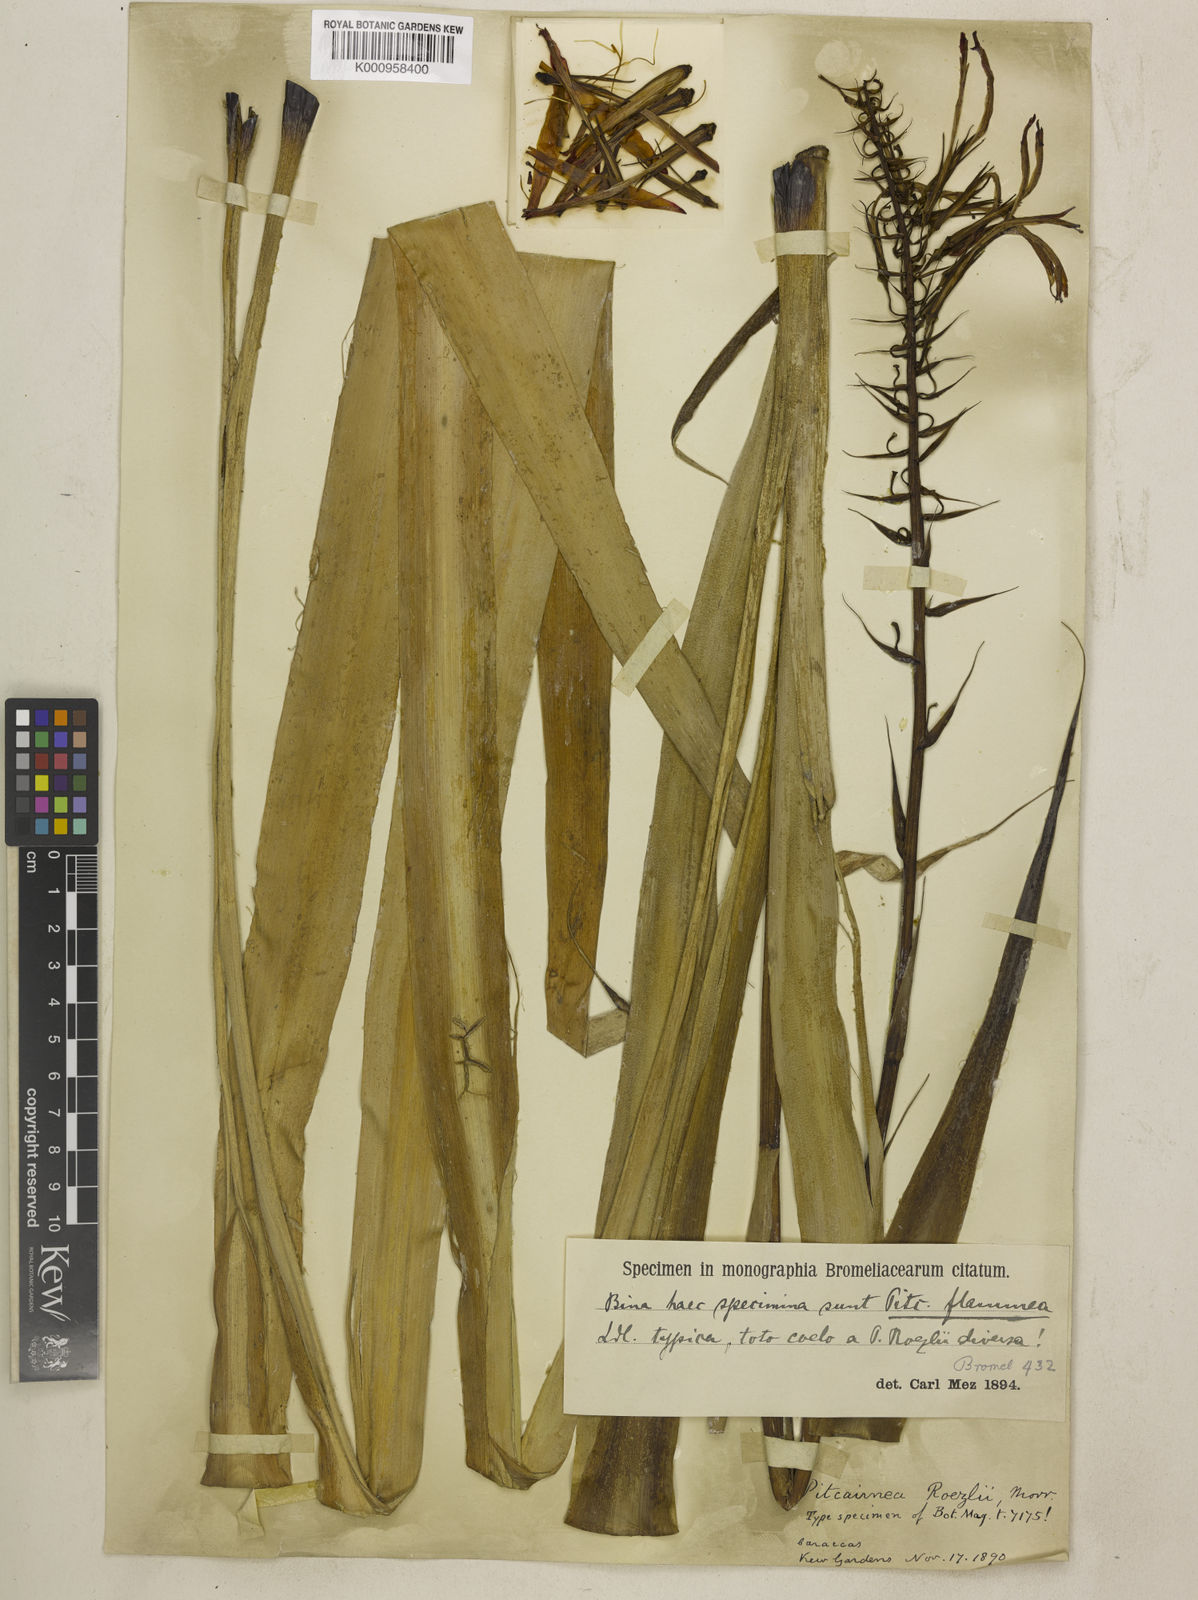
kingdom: Plantae
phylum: Tracheophyta
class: Liliopsida
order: Poales
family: Bromeliaceae
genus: Pitcairnia
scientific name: Pitcairnia flammea
